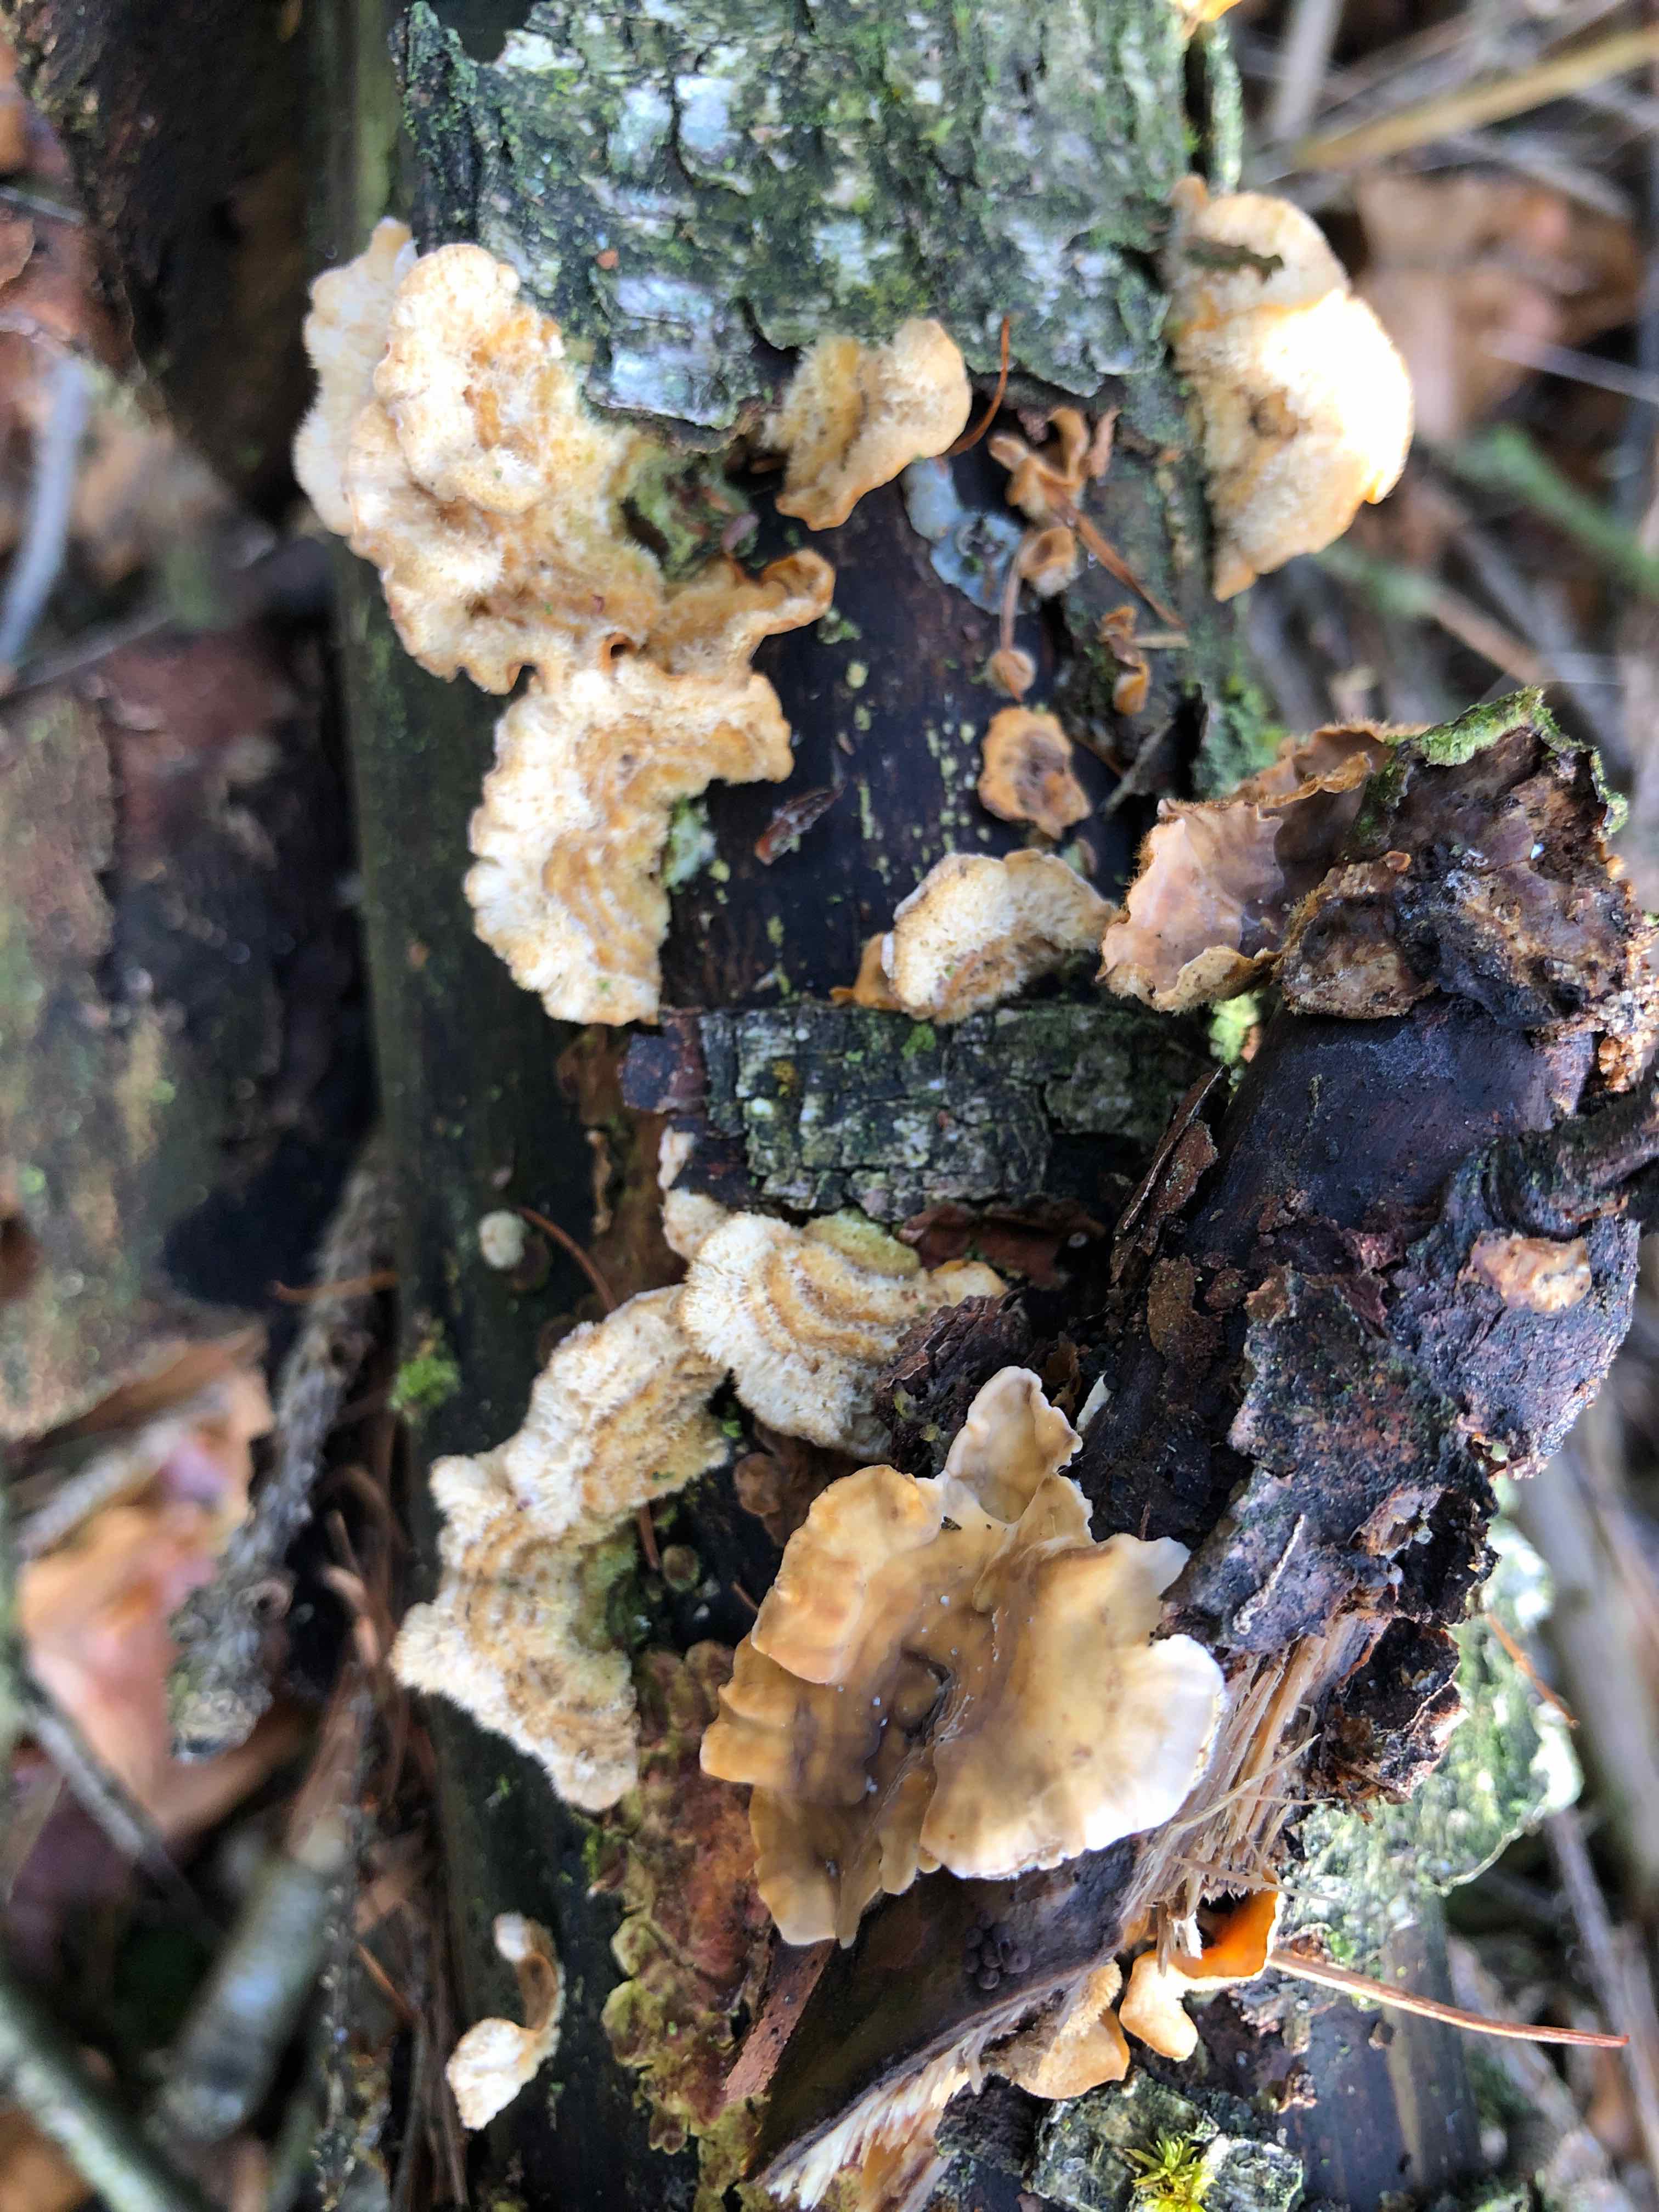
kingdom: Fungi
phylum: Basidiomycota
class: Agaricomycetes
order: Russulales
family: Stereaceae
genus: Stereum
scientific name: Stereum hirsutum
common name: håret lædersvamp
